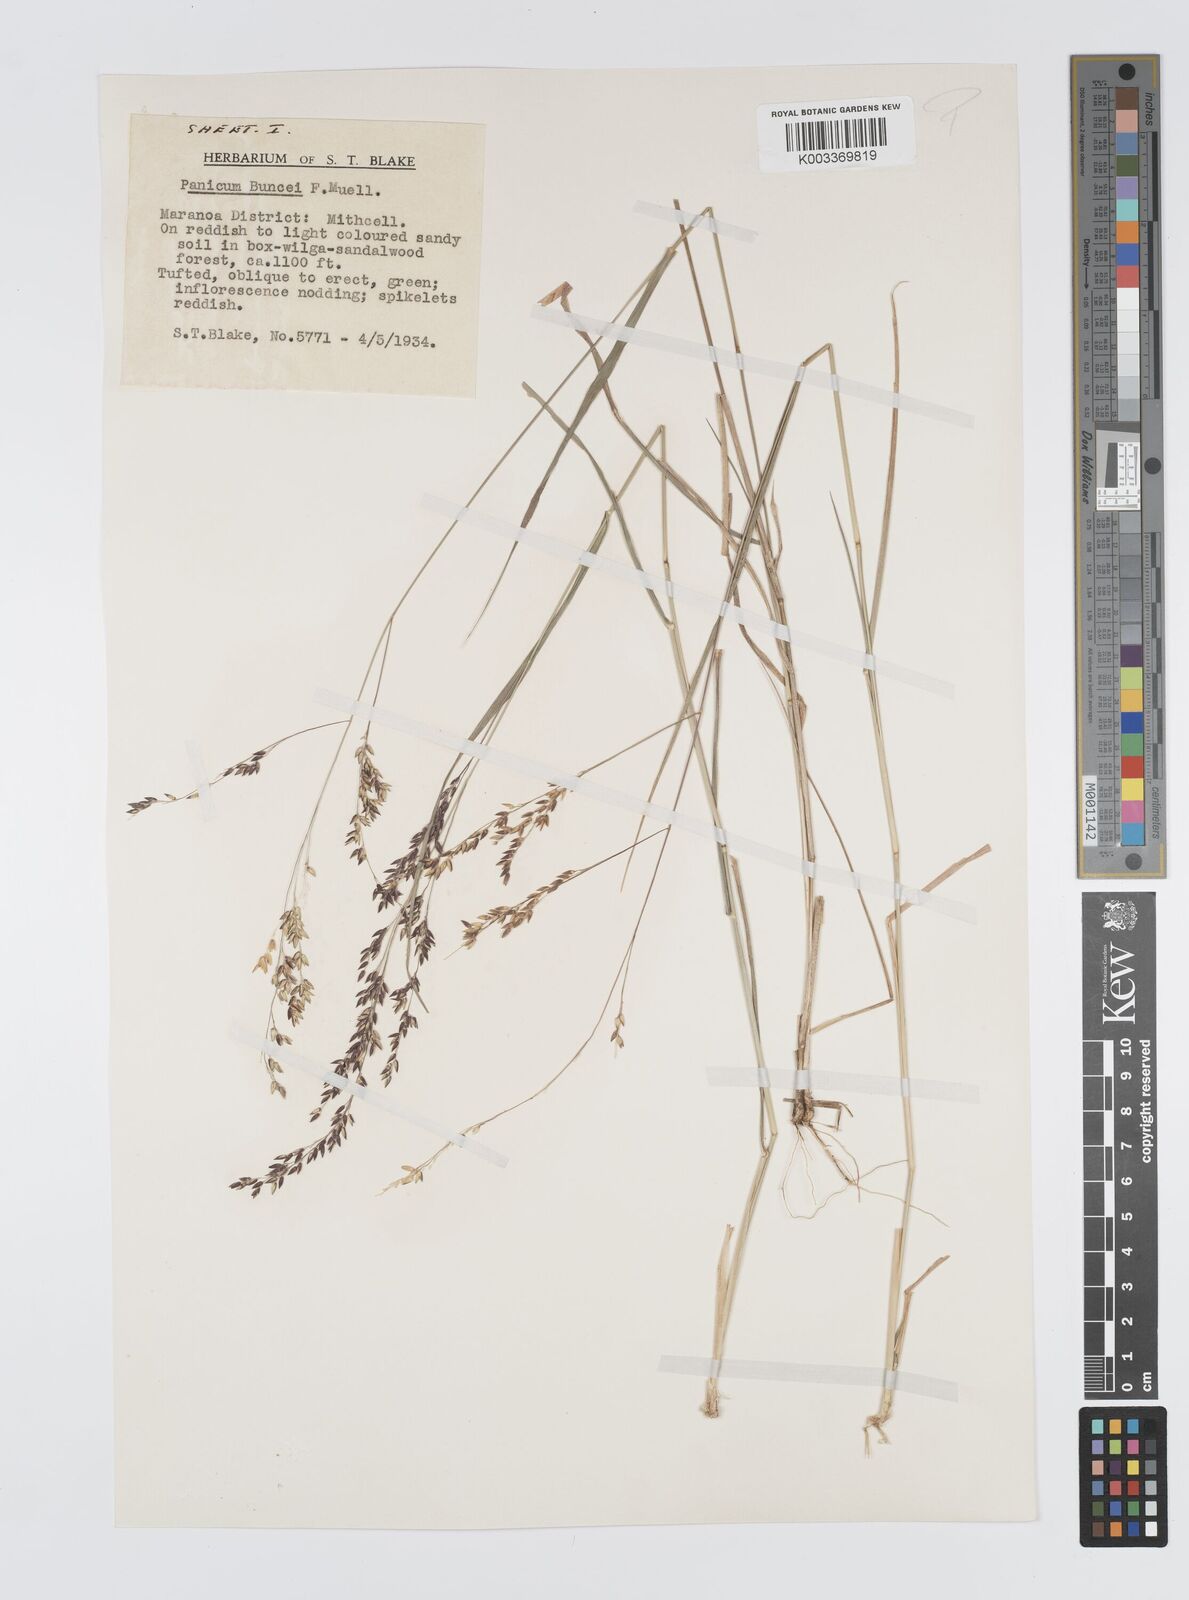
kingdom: Plantae
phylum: Tracheophyta
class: Liliopsida
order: Poales
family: Poaceae
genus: Panicum
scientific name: Panicum buncei
